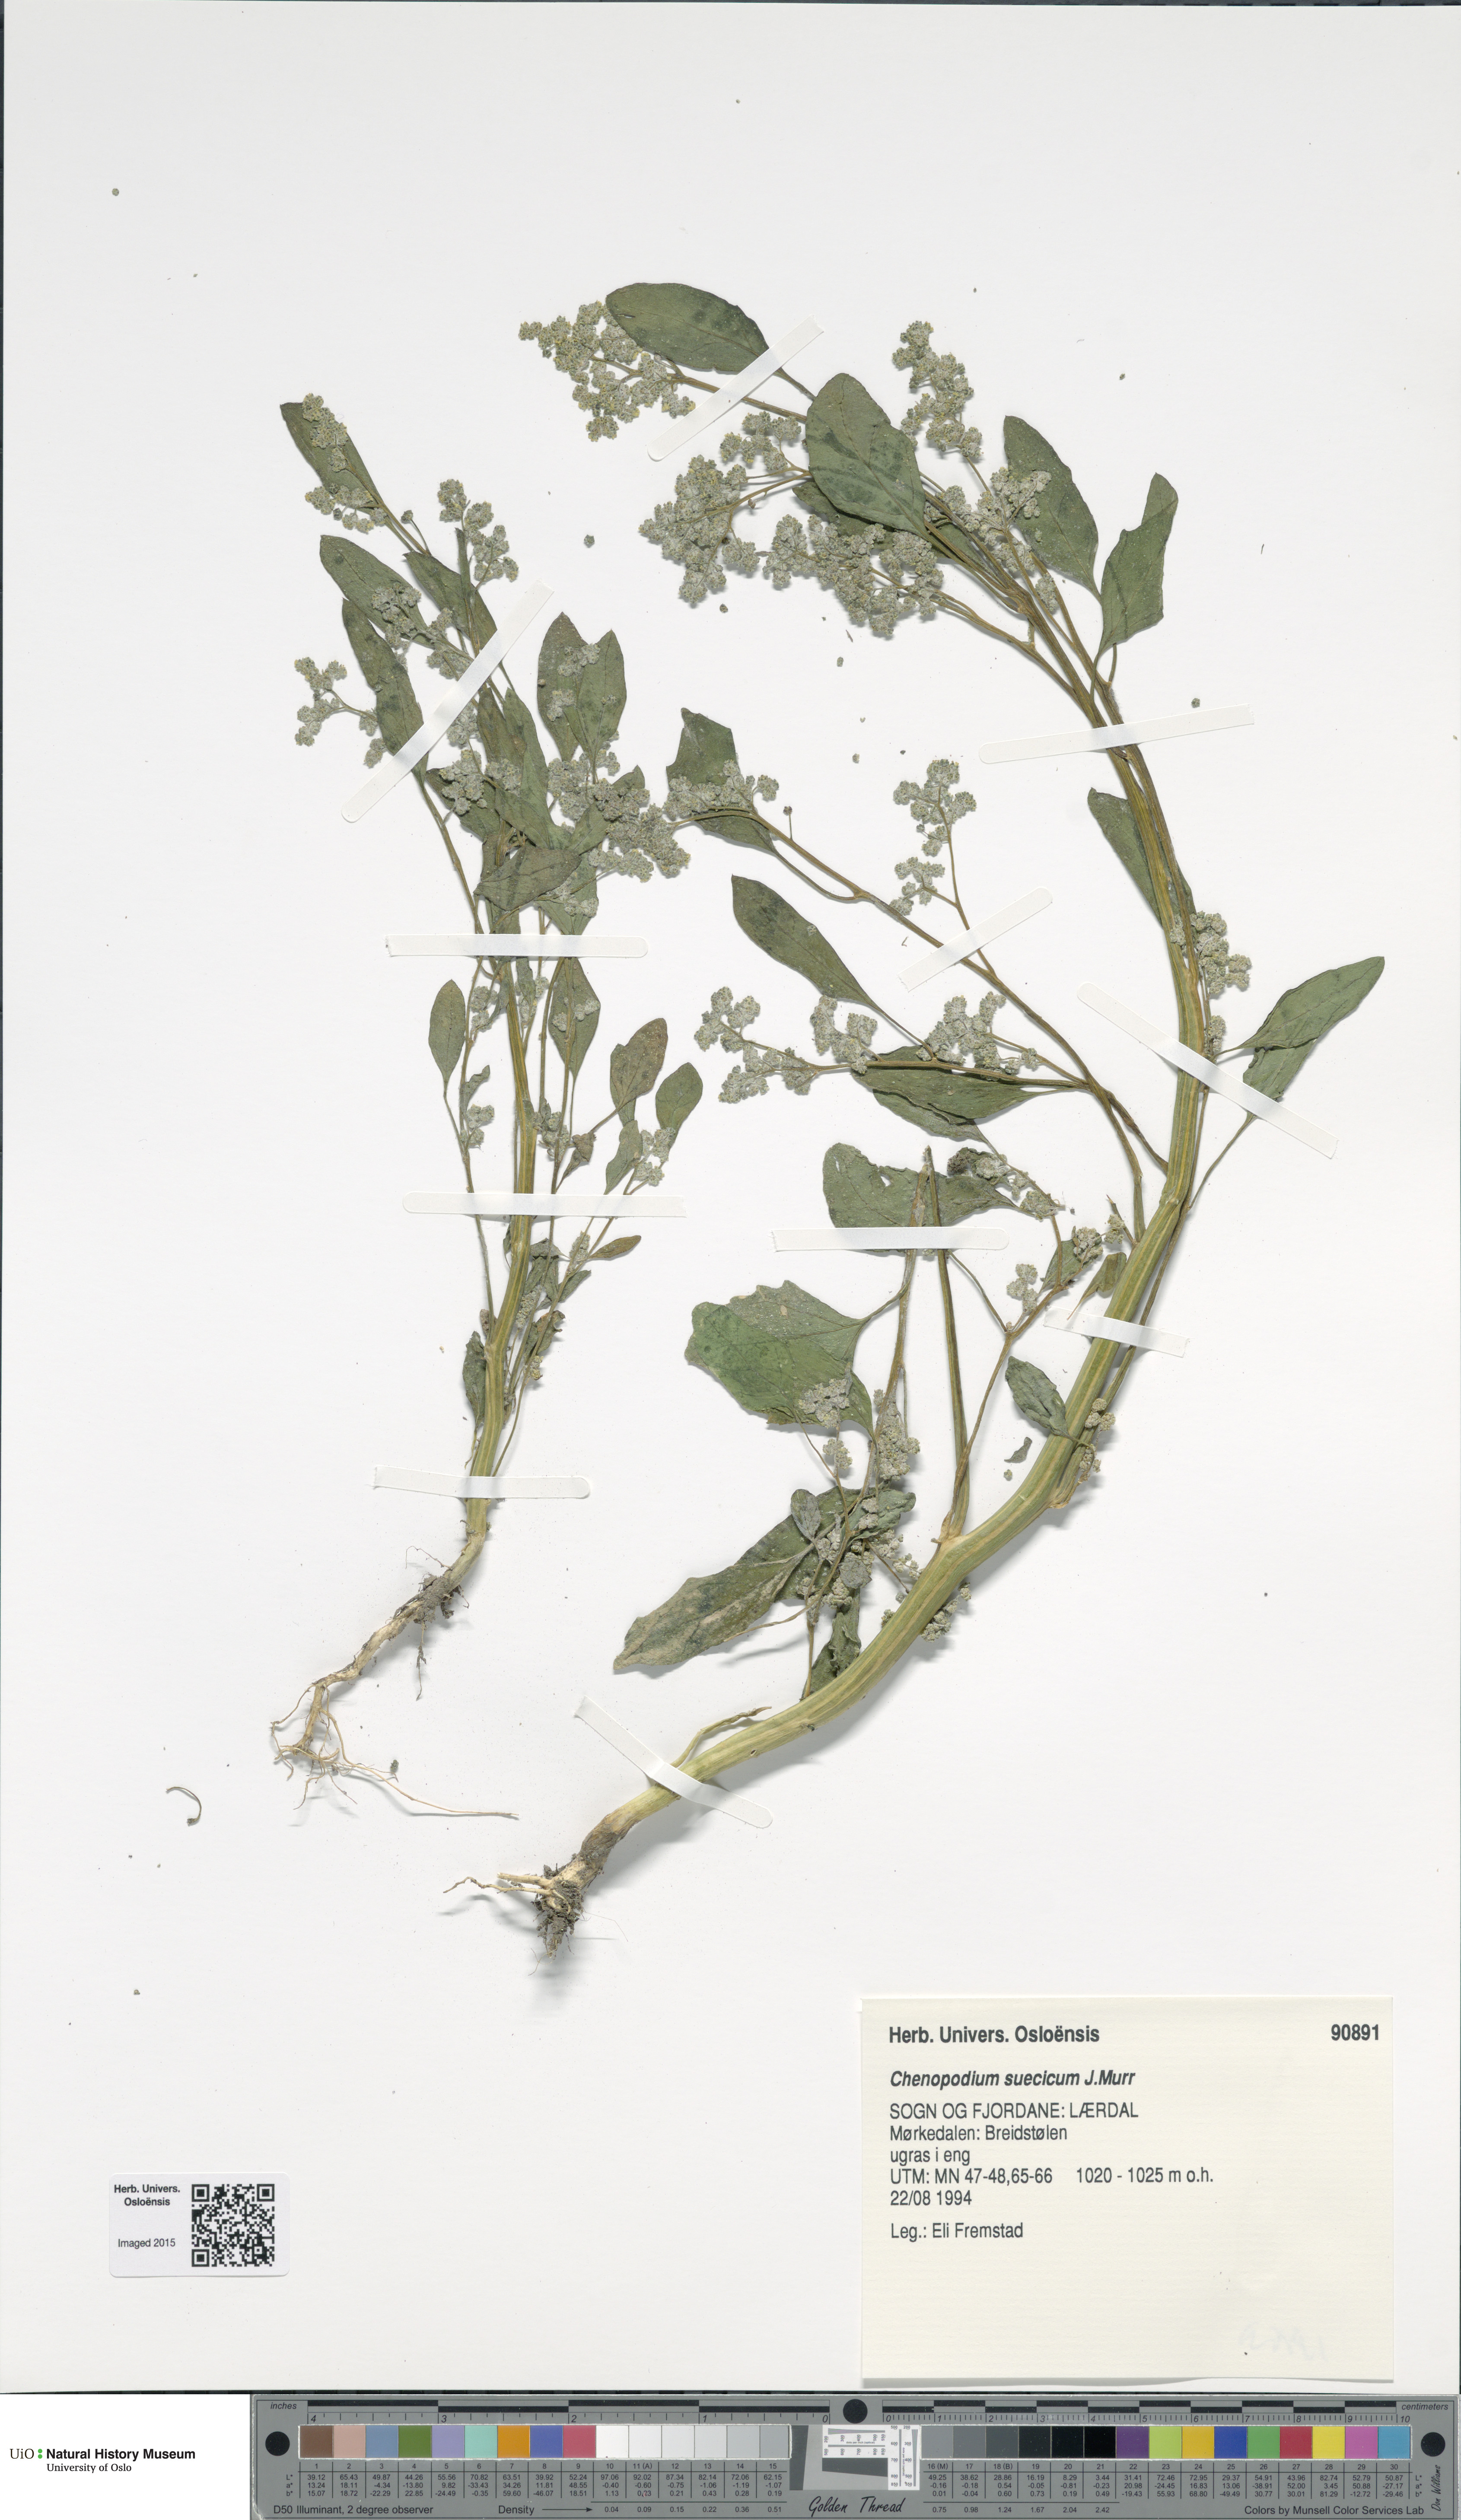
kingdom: Plantae
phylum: Tracheophyta
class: Magnoliopsida
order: Caryophyllales
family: Amaranthaceae
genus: Chenopodium
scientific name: Chenopodium suecicum
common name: Swedish goosefoot
